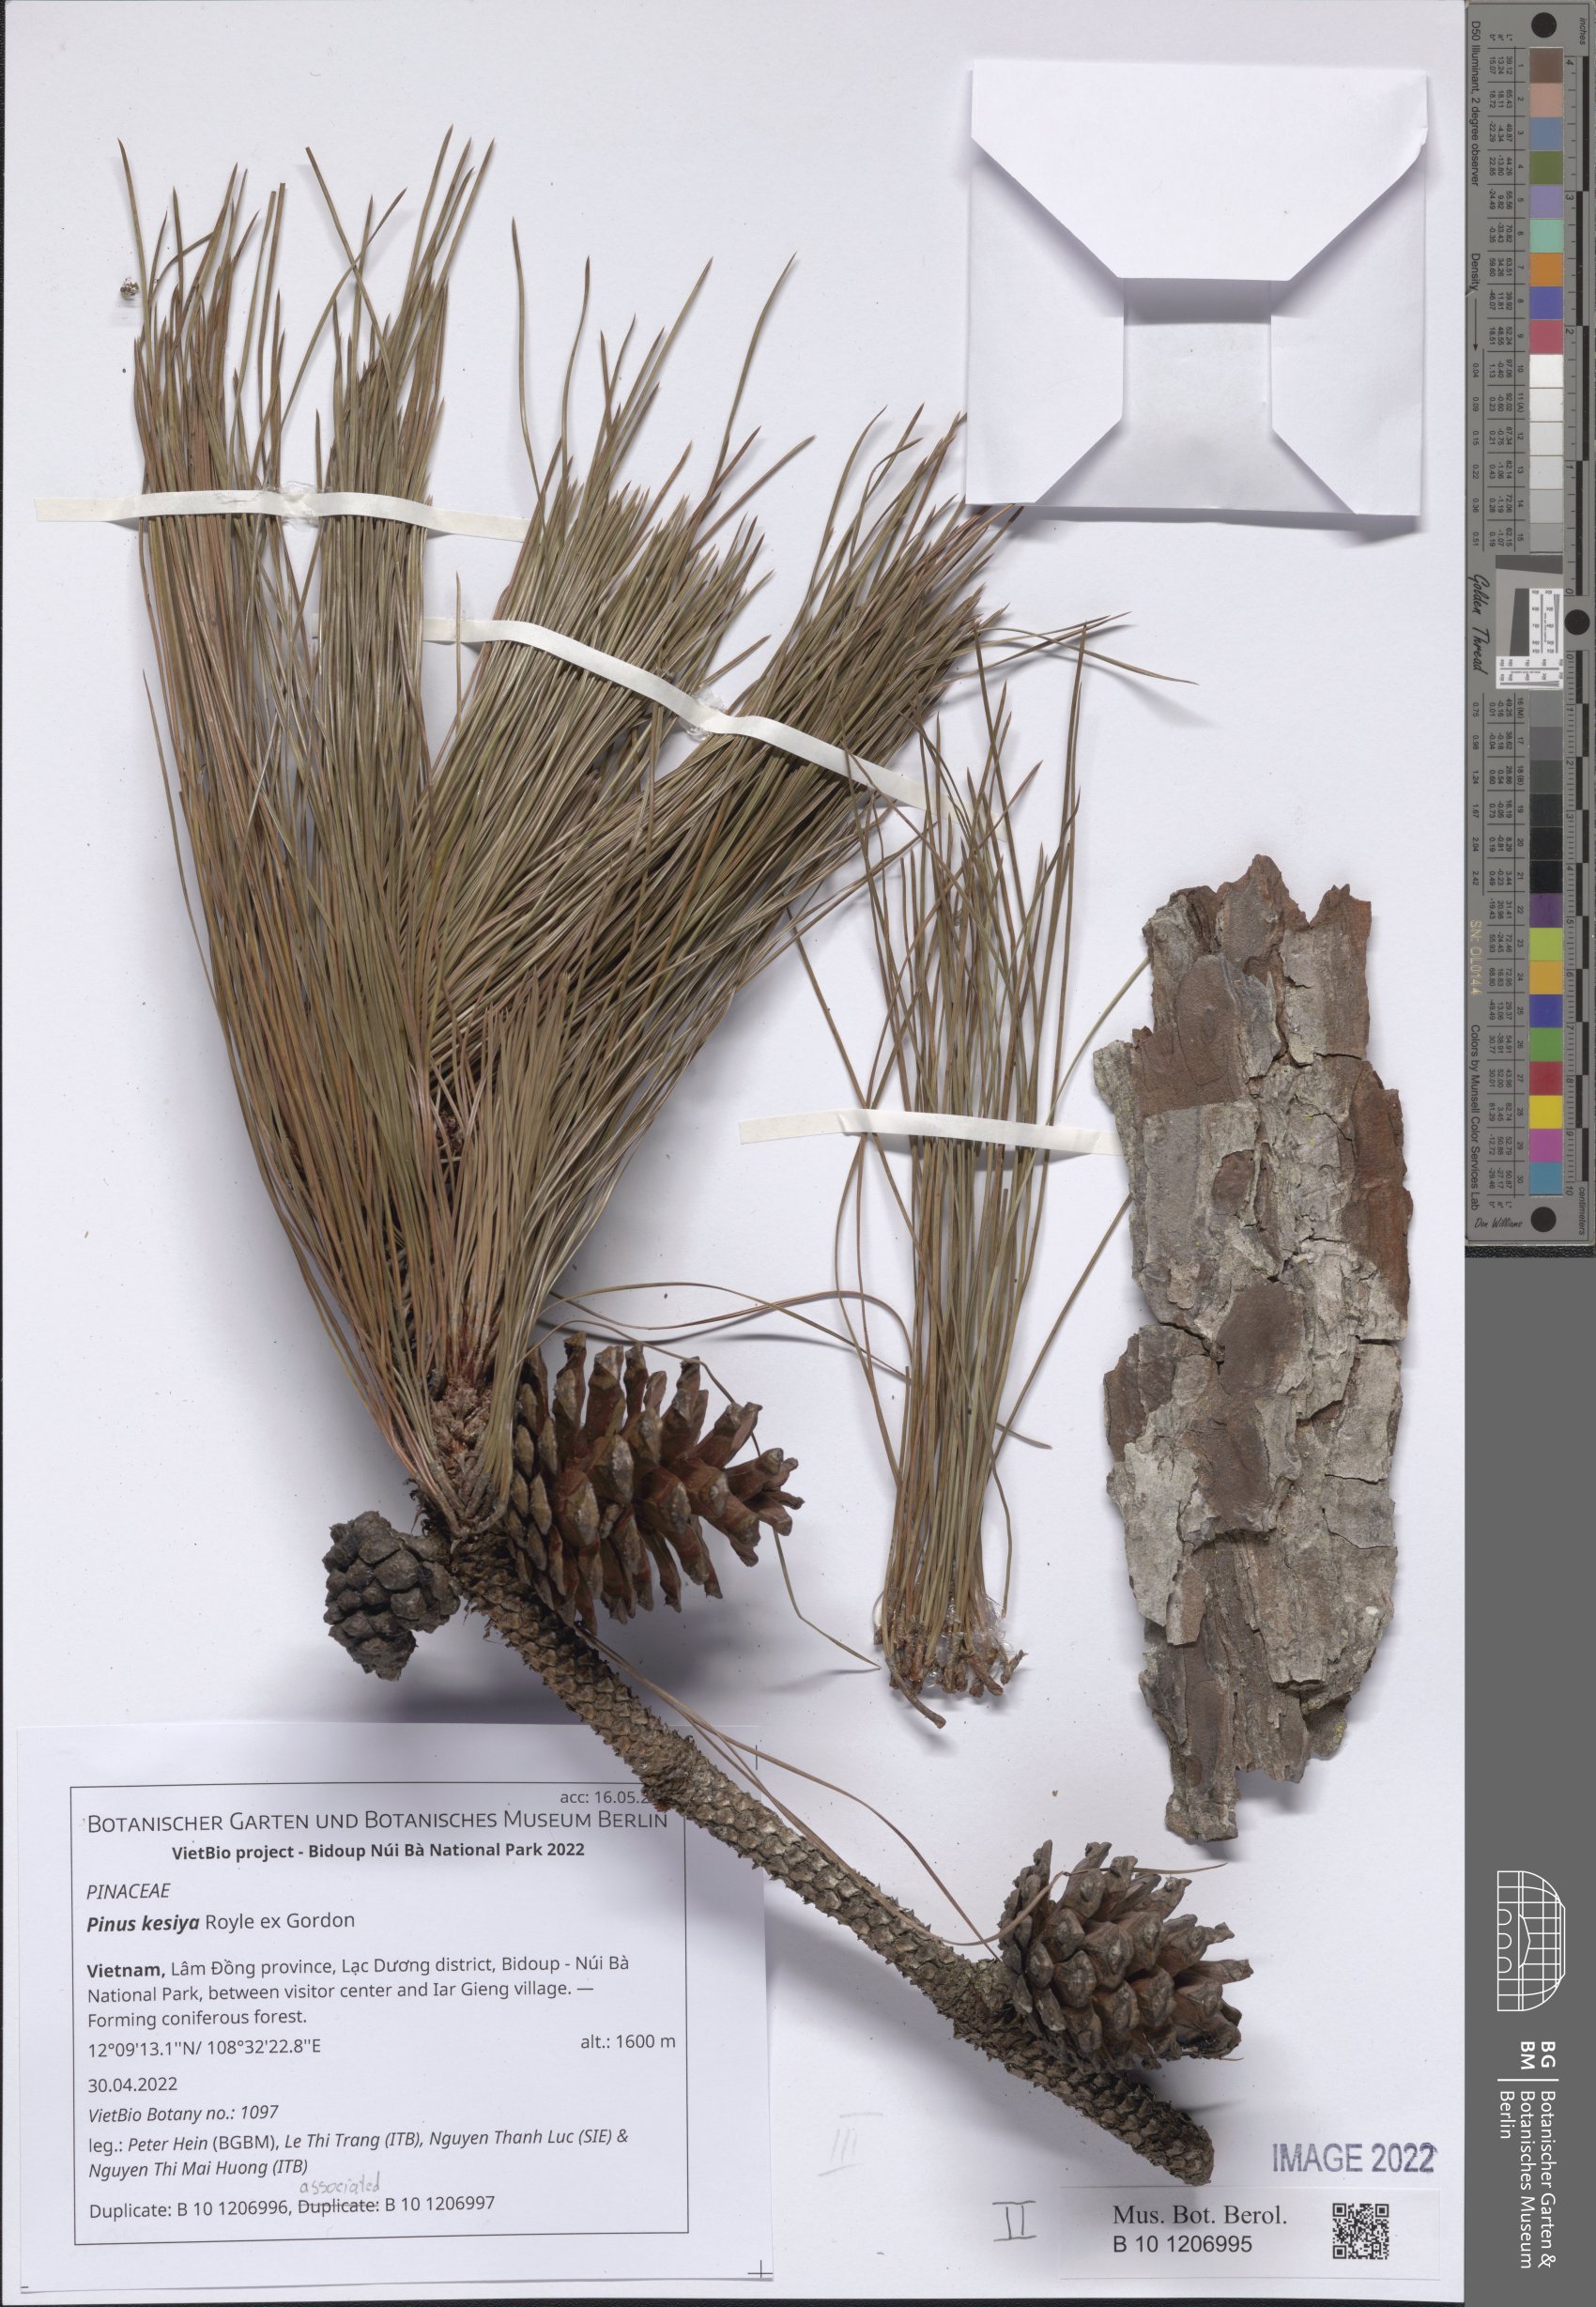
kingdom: Plantae
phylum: Tracheophyta
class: Pinopsida
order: Pinales
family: Pinaceae
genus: Pinus
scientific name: Pinus kesiya
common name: Benguet pine
